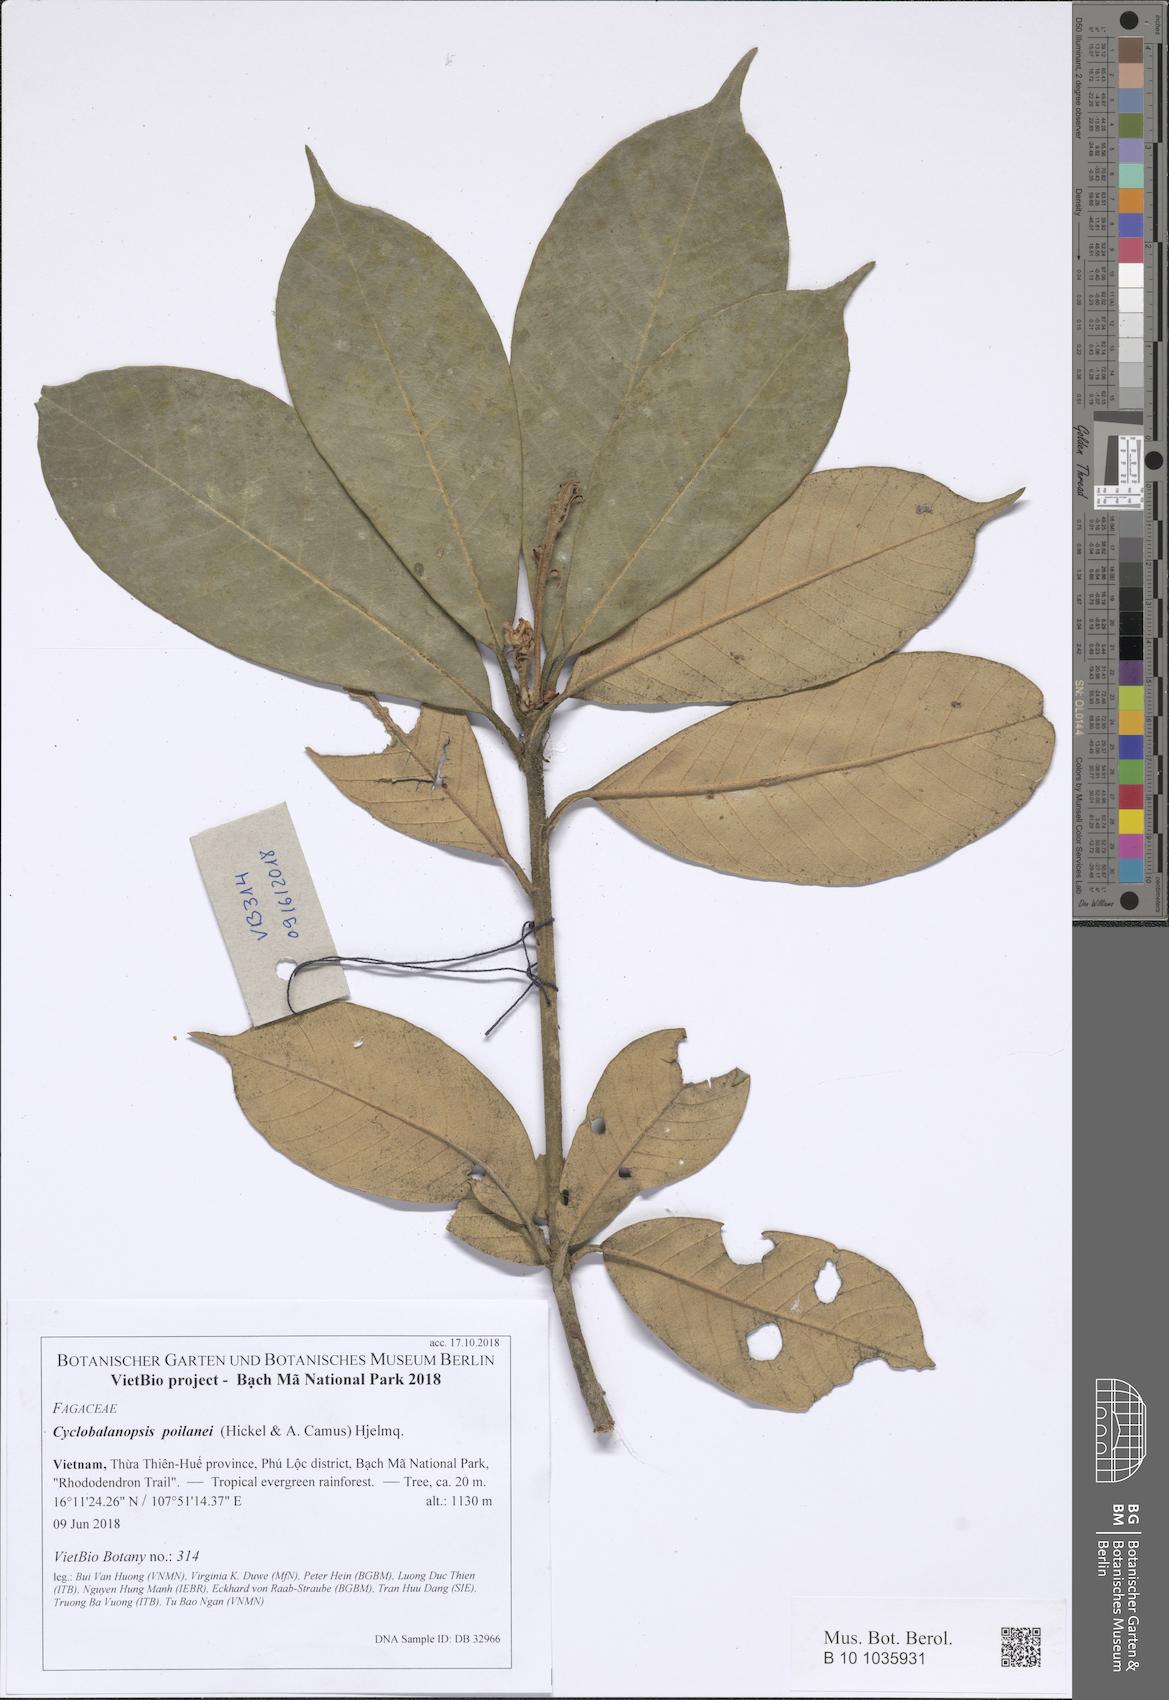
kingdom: Plantae
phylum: Tracheophyta
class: Magnoliopsida
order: Fagales
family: Fagaceae
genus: Quercus
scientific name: Quercus poilanei
